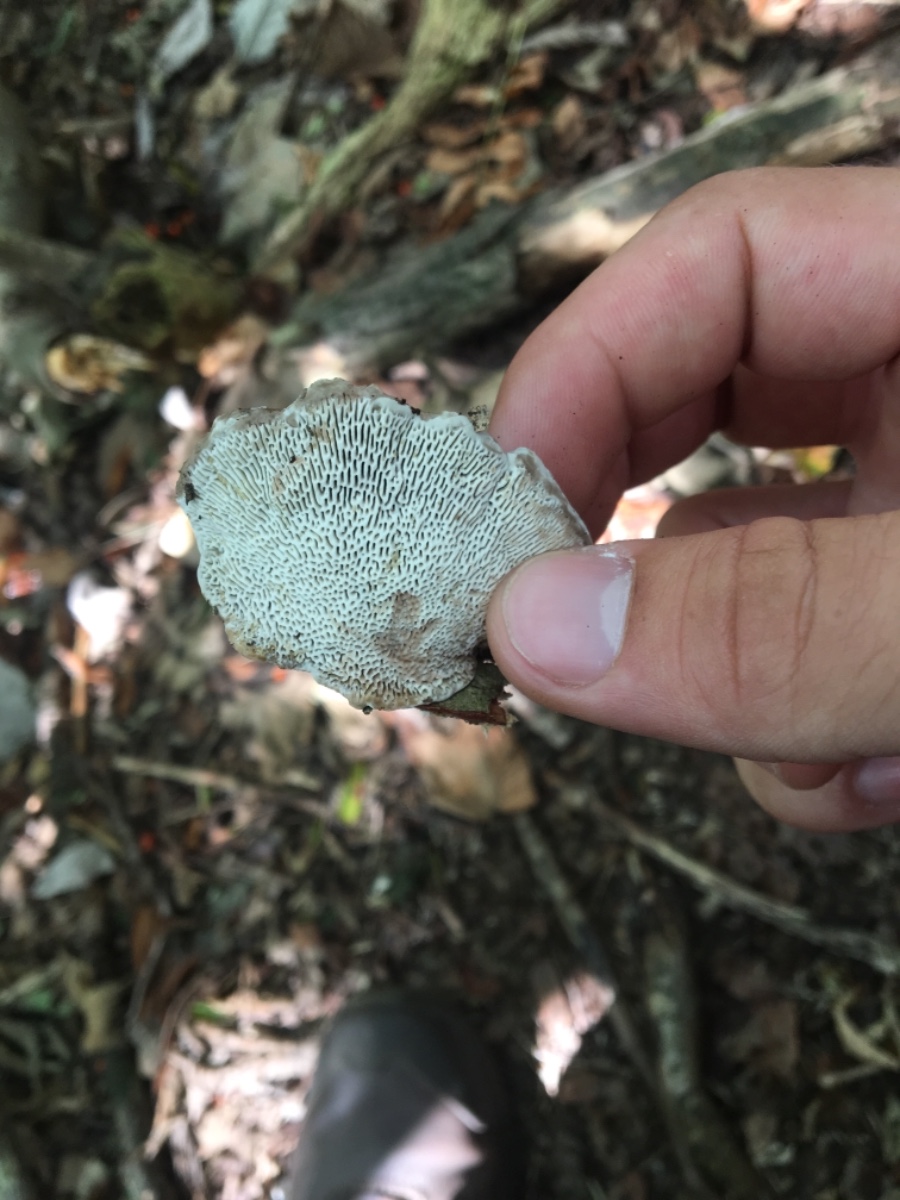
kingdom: Fungi
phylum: Basidiomycota
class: Agaricomycetes
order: Polyporales
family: Polyporaceae
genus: Daedaleopsis
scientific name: Daedaleopsis confragosa
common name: rødmende læderporesvamp
